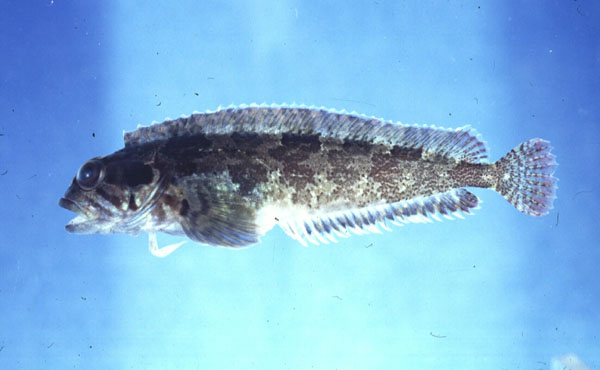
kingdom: Animalia
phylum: Chordata
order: Perciformes
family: Clinidae
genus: Clinus
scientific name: Clinus cottoides
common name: Bluntnose klipfish
